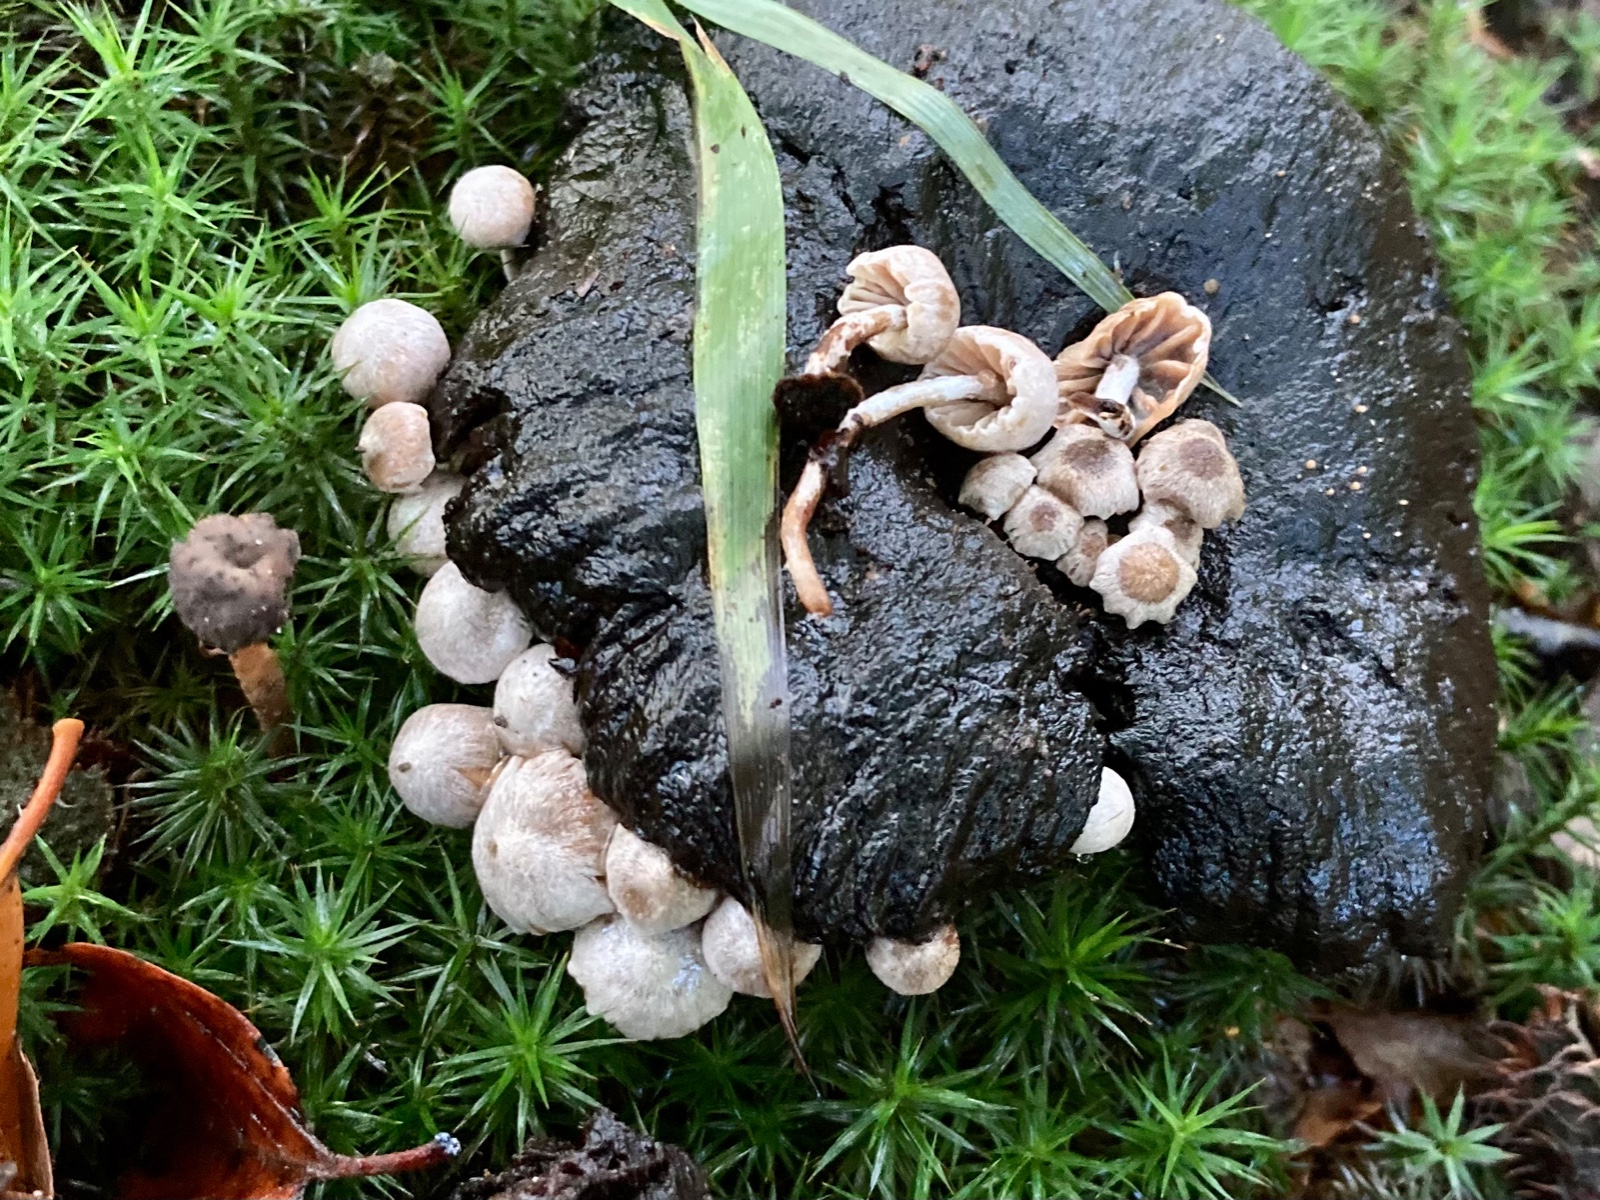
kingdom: Fungi
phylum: Basidiomycota
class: Agaricomycetes
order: Agaricales
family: Lyophyllaceae
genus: Asterophora
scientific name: Asterophora parasitica
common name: grå snyltehat
